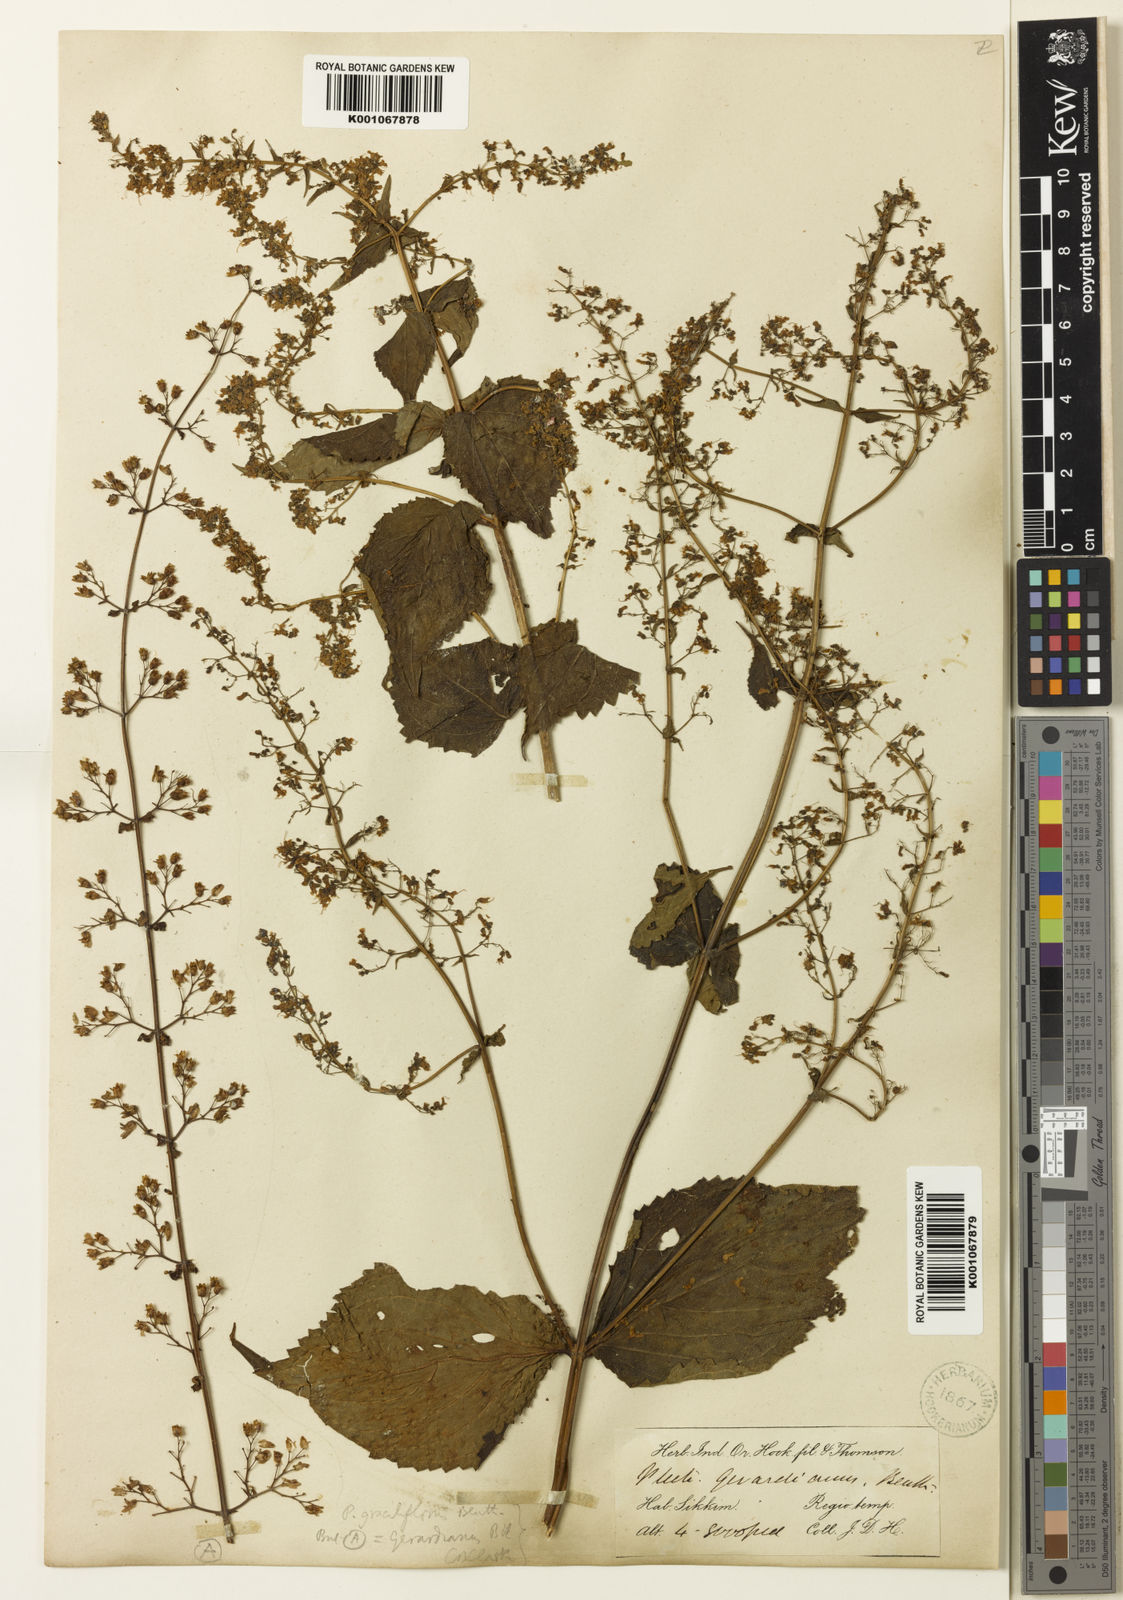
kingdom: Plantae
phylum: Tracheophyta
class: Magnoliopsida
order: Lamiales
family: Lamiaceae
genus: Isodon
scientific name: Isodon lophanthoides
